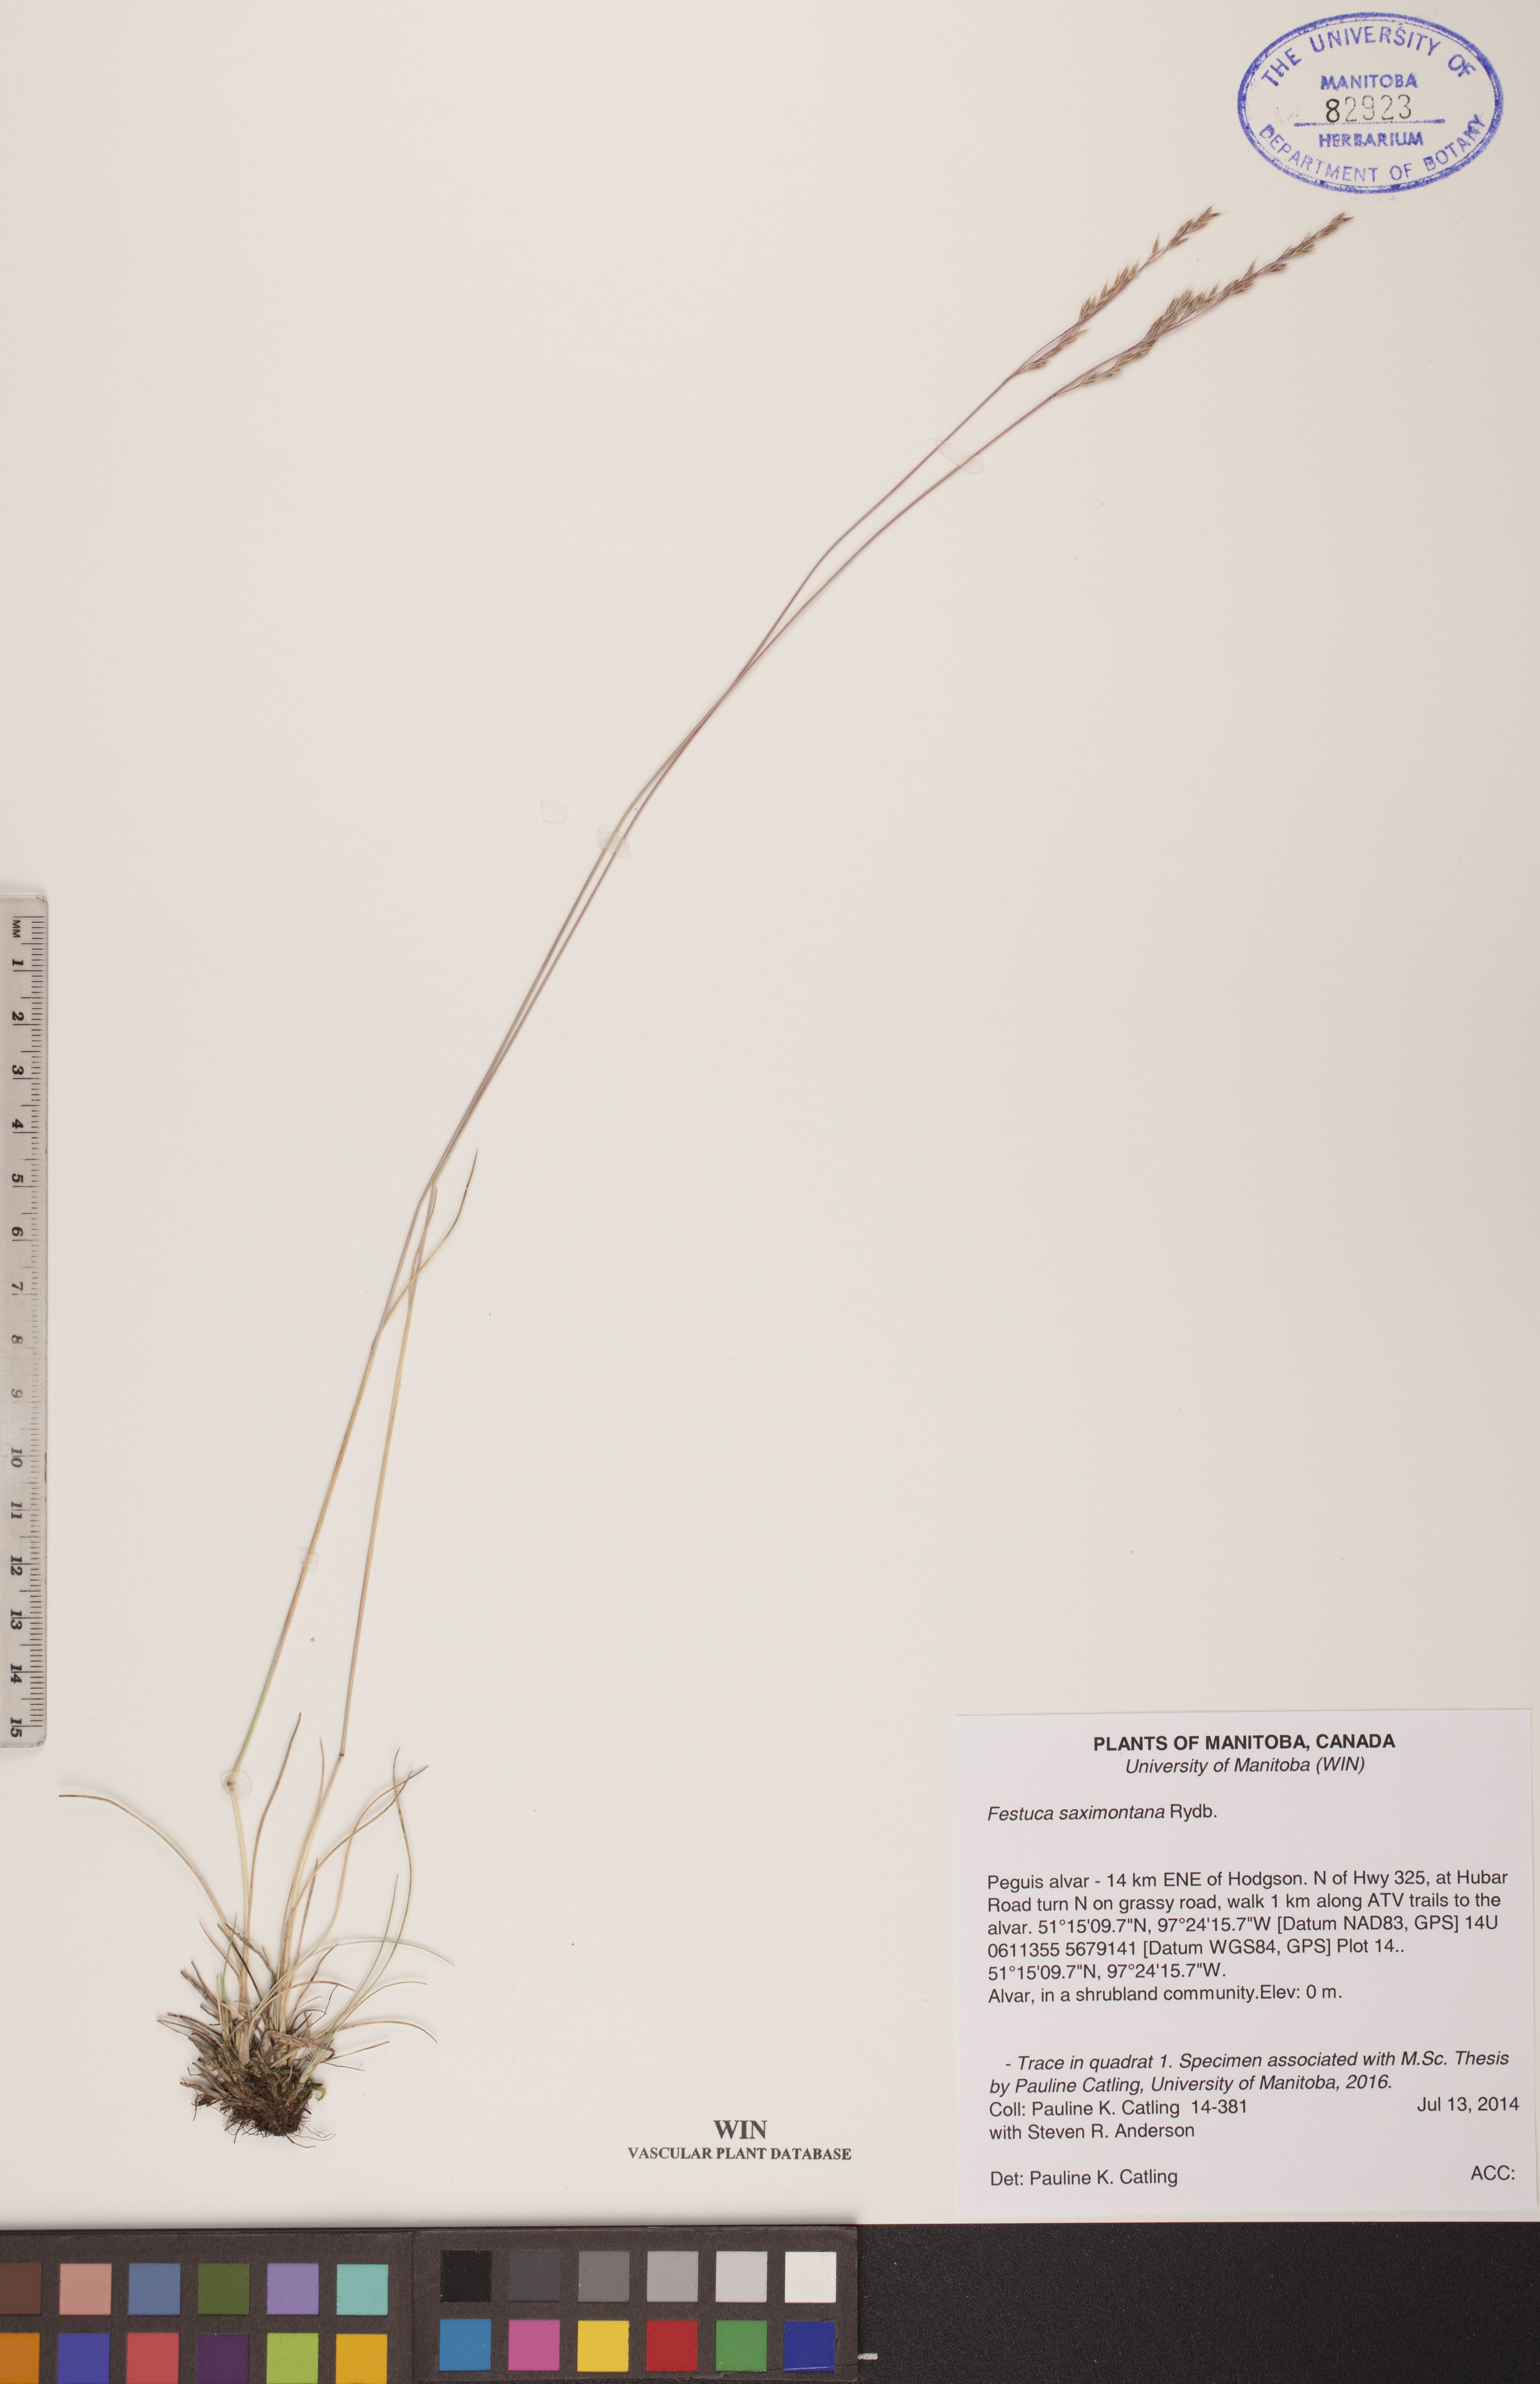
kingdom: Plantae
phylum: Tracheophyta
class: Liliopsida
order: Poales
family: Poaceae
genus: Festuca
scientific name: Festuca saximontana
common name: Mountain fescue
